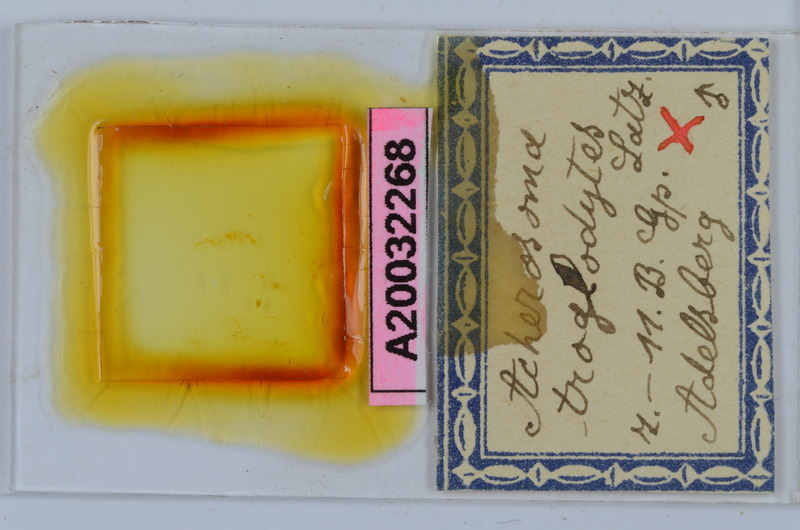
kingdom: Animalia
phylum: Arthropoda
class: Diplopoda
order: Chordeumatida
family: Anthogonidae
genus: Haasia
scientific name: Haasia troglodytes
